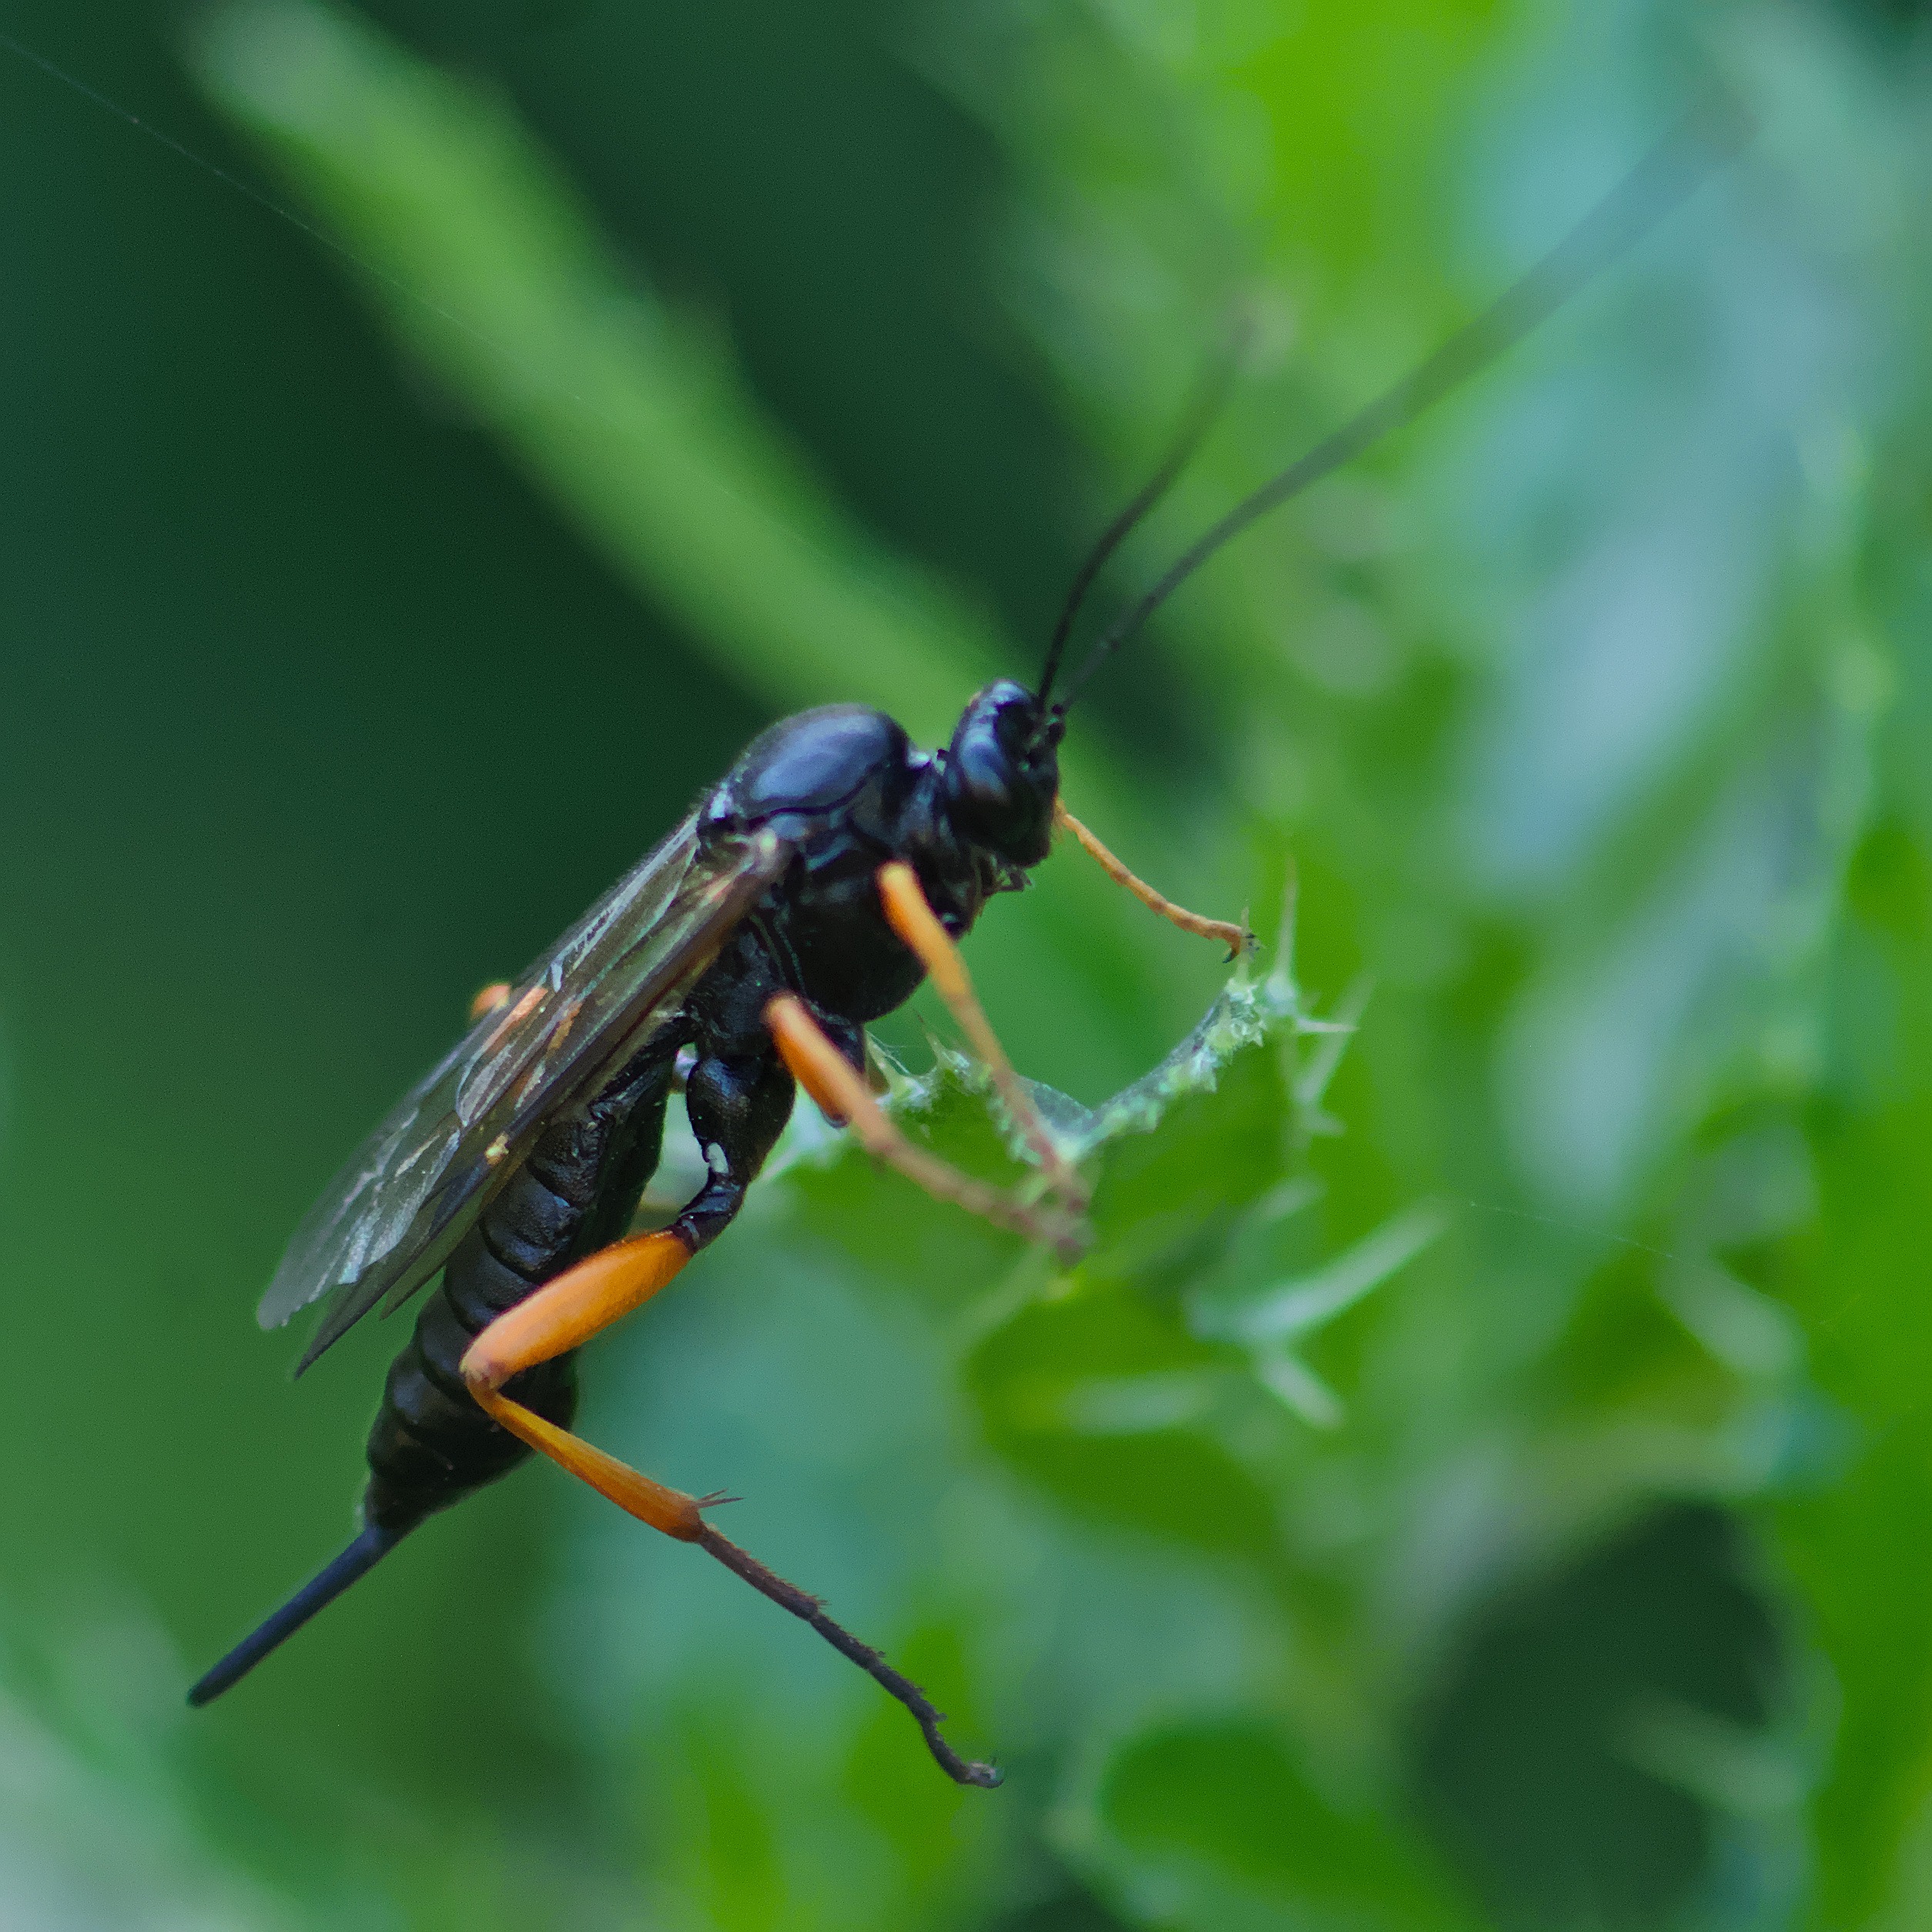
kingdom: Animalia
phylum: Arthropoda
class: Insecta
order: Hymenoptera
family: Ichneumonidae
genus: Pimpla
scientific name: Pimpla rufipes
